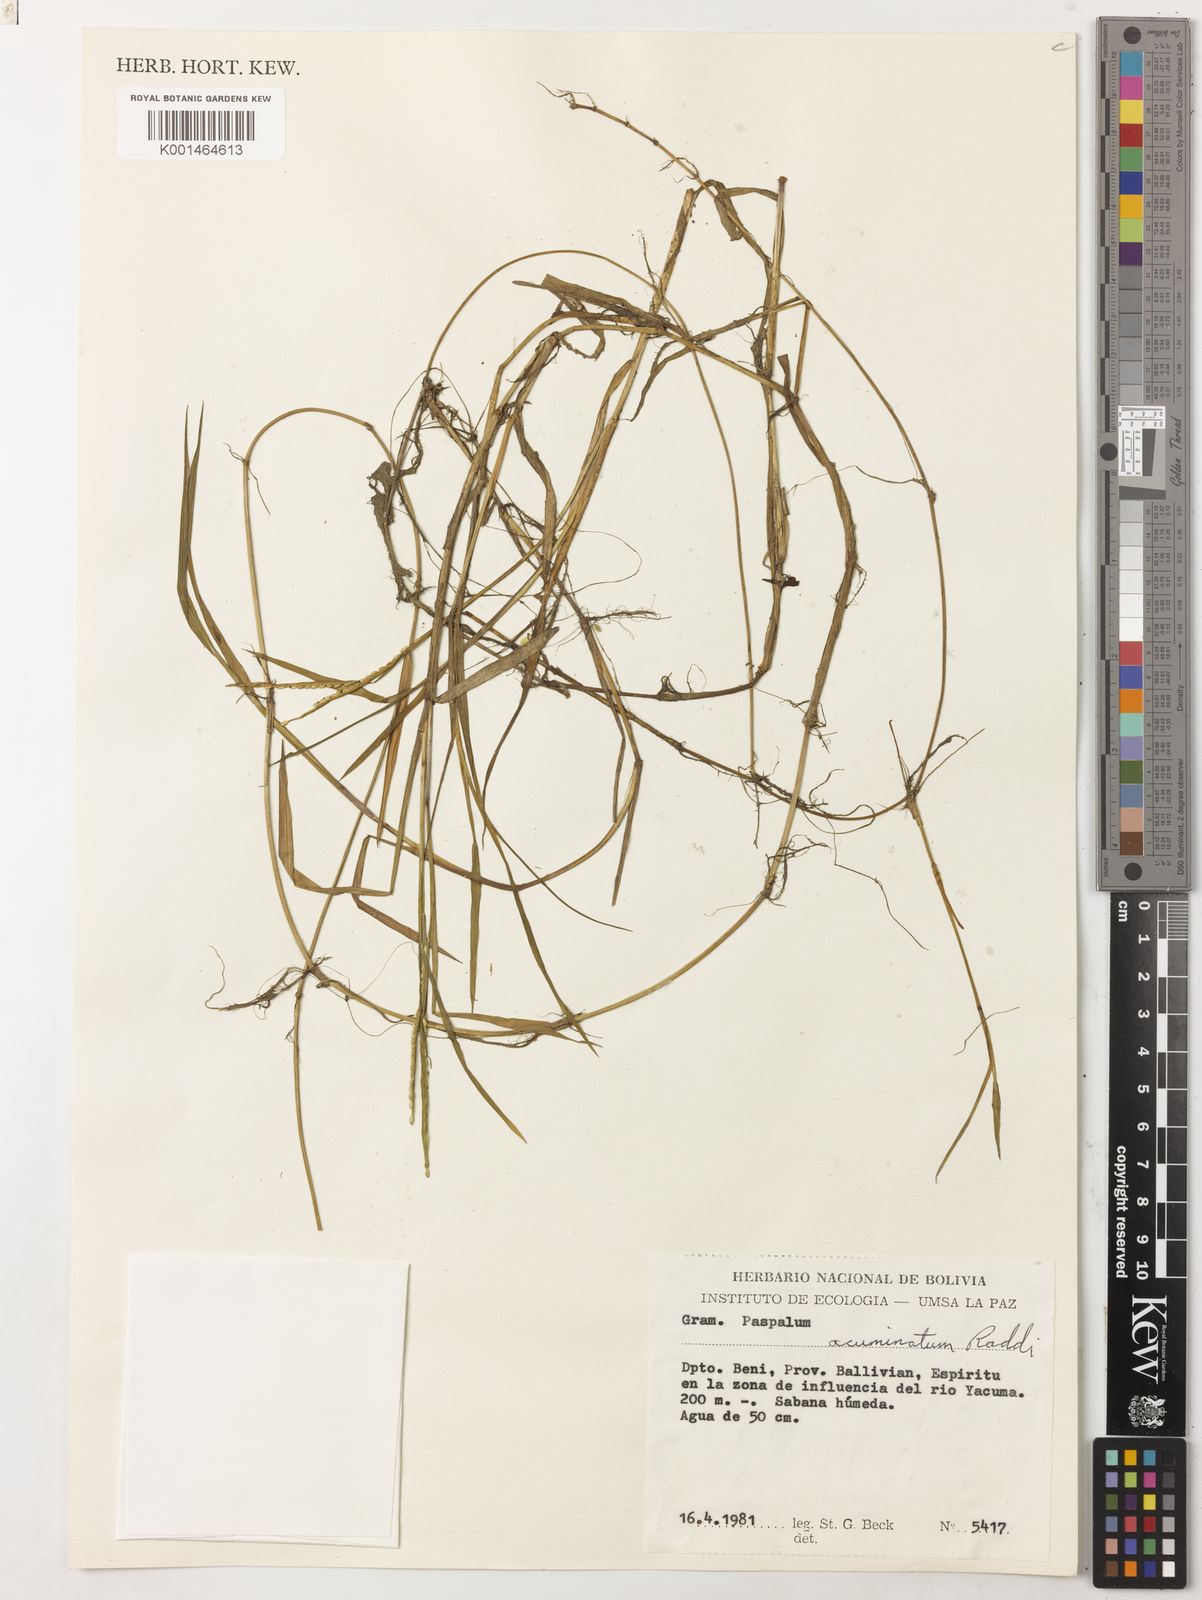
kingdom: Plantae
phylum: Tracheophyta
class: Liliopsida
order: Poales
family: Poaceae
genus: Paspalum
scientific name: Paspalum morichalense
